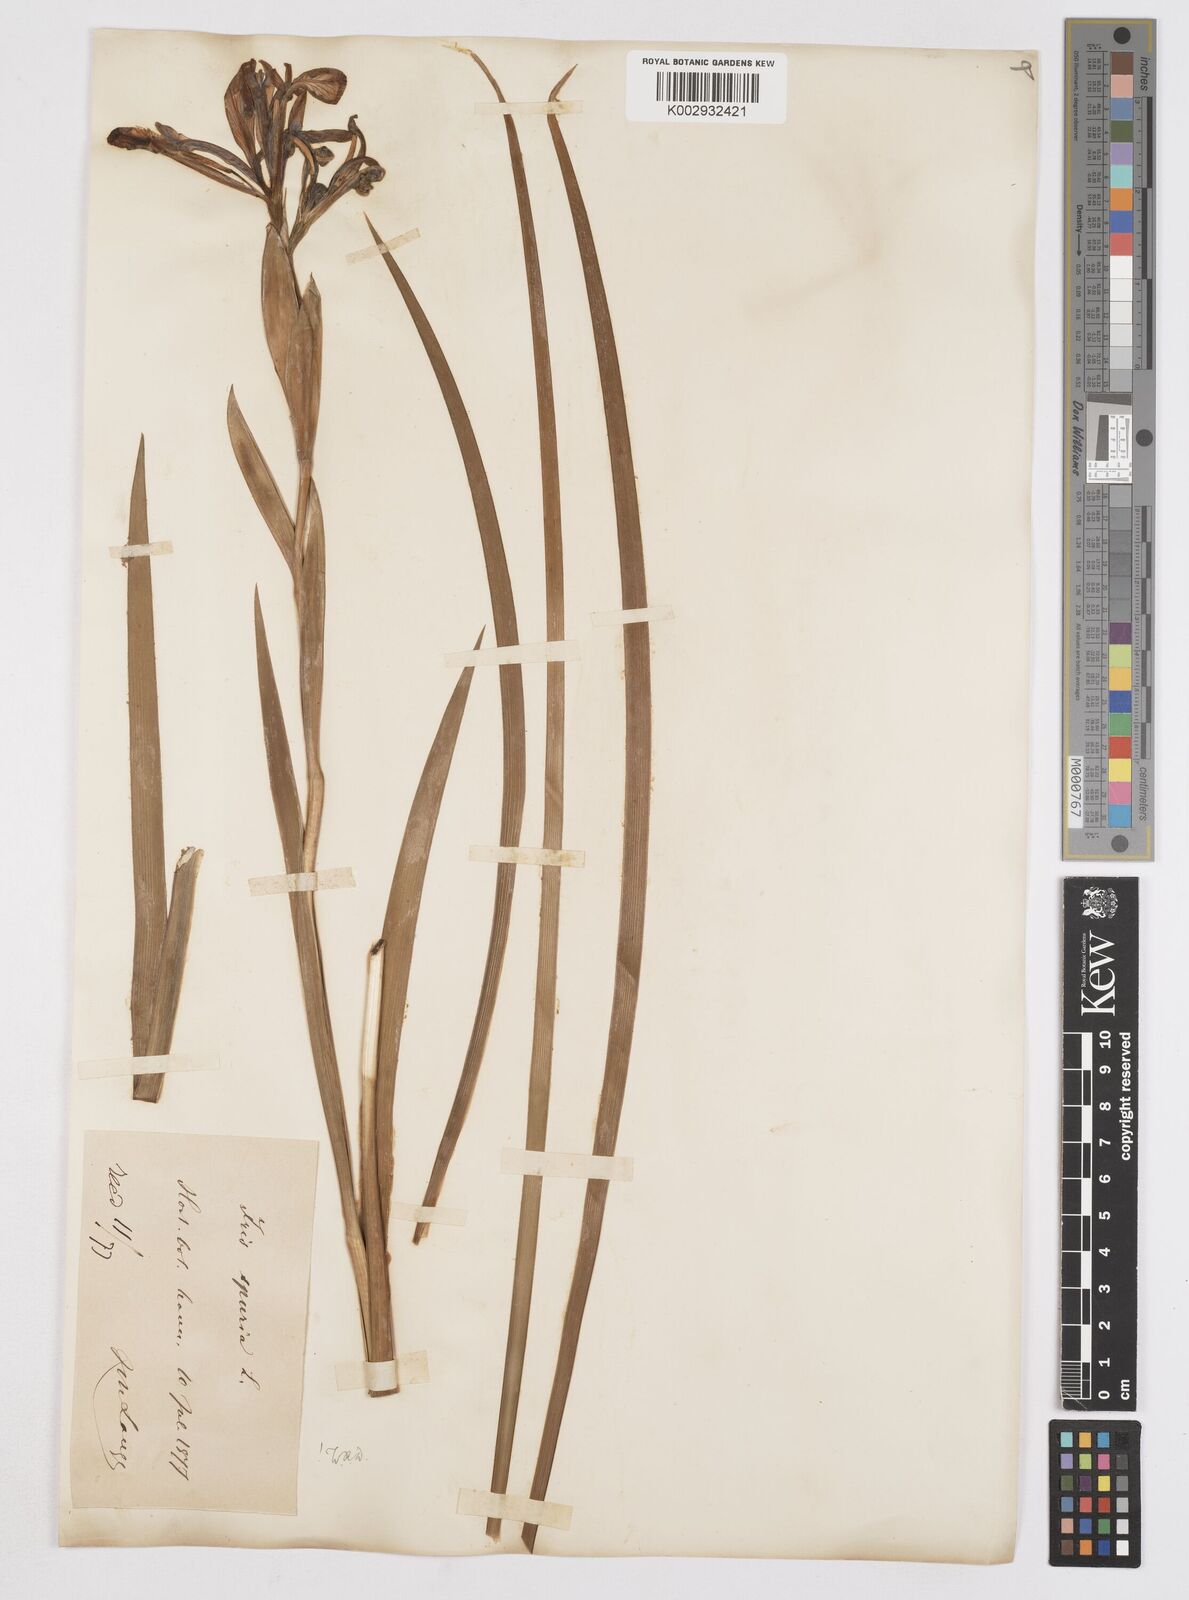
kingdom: Plantae
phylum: Tracheophyta
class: Liliopsida
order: Asparagales
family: Iridaceae
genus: Iris
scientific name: Iris spuria
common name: Blue iris
